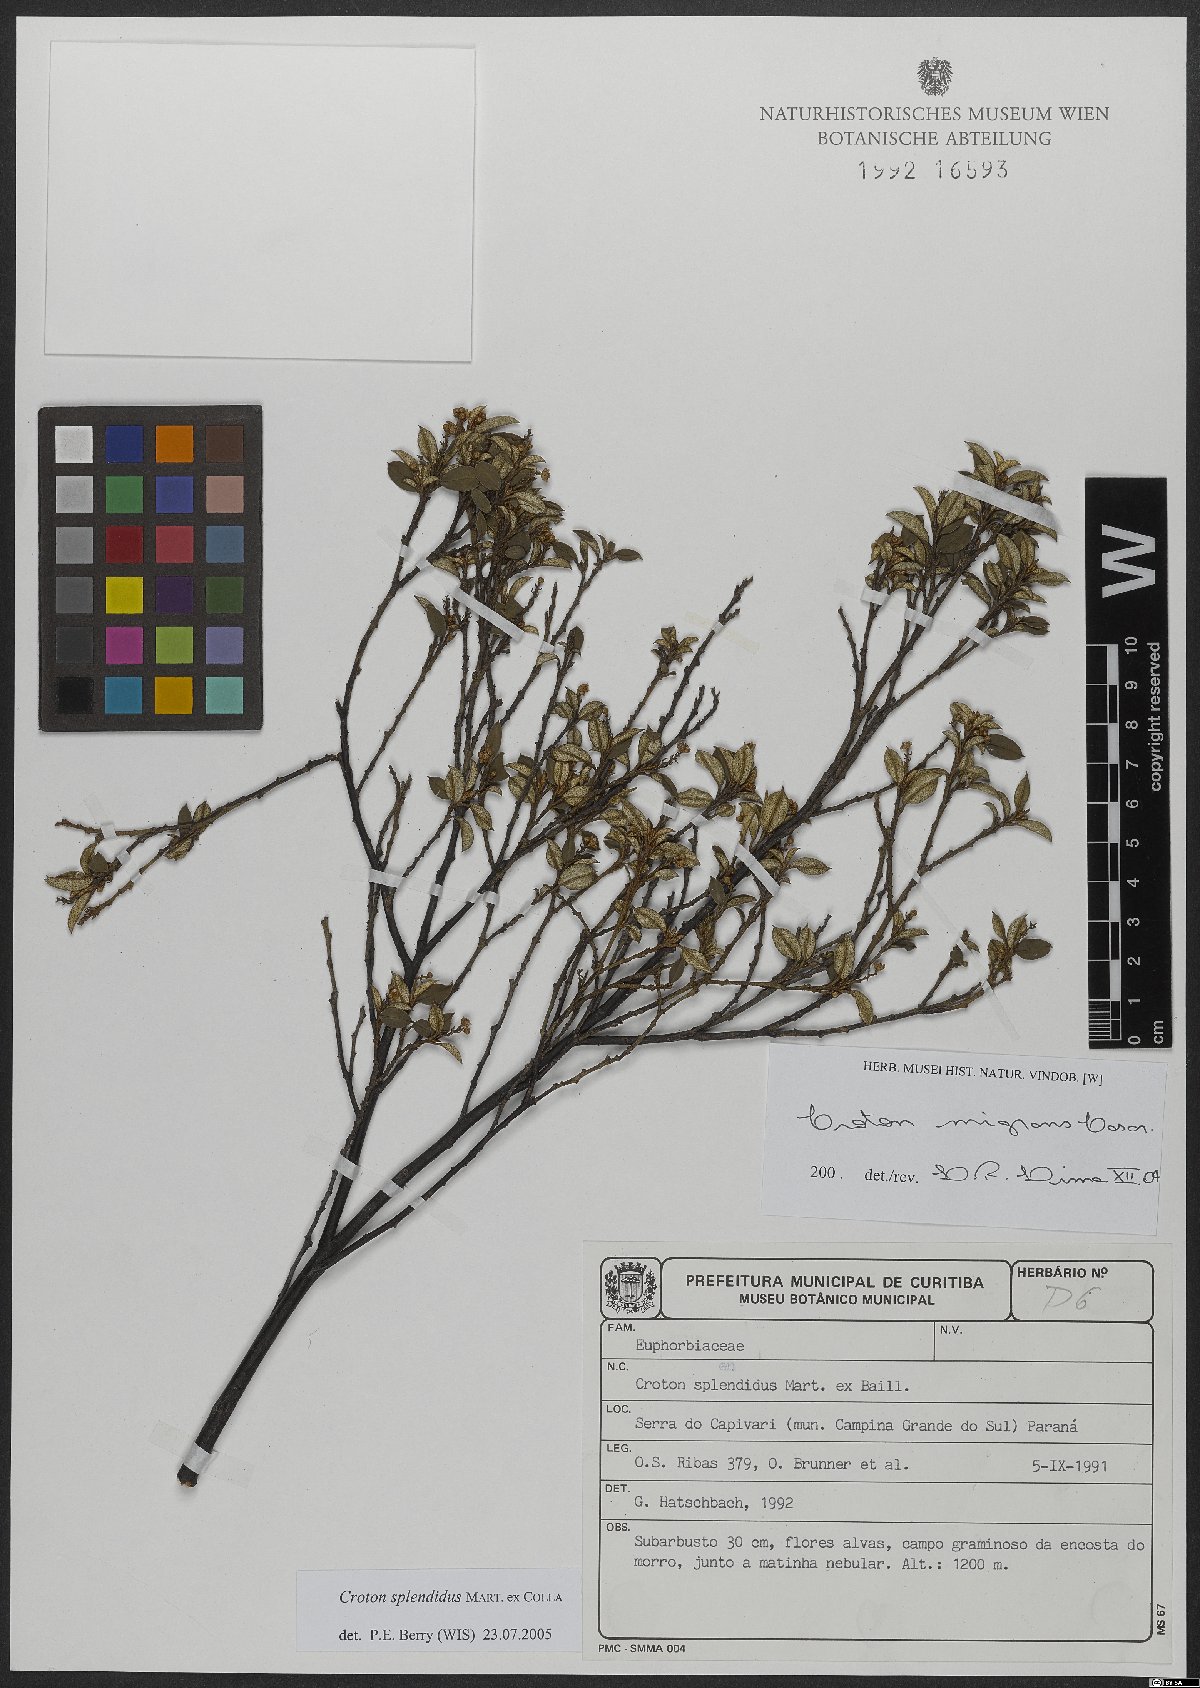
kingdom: Plantae
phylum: Tracheophyta
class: Magnoliopsida
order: Malpighiales
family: Euphorbiaceae
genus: Croton
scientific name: Croton splendidus
